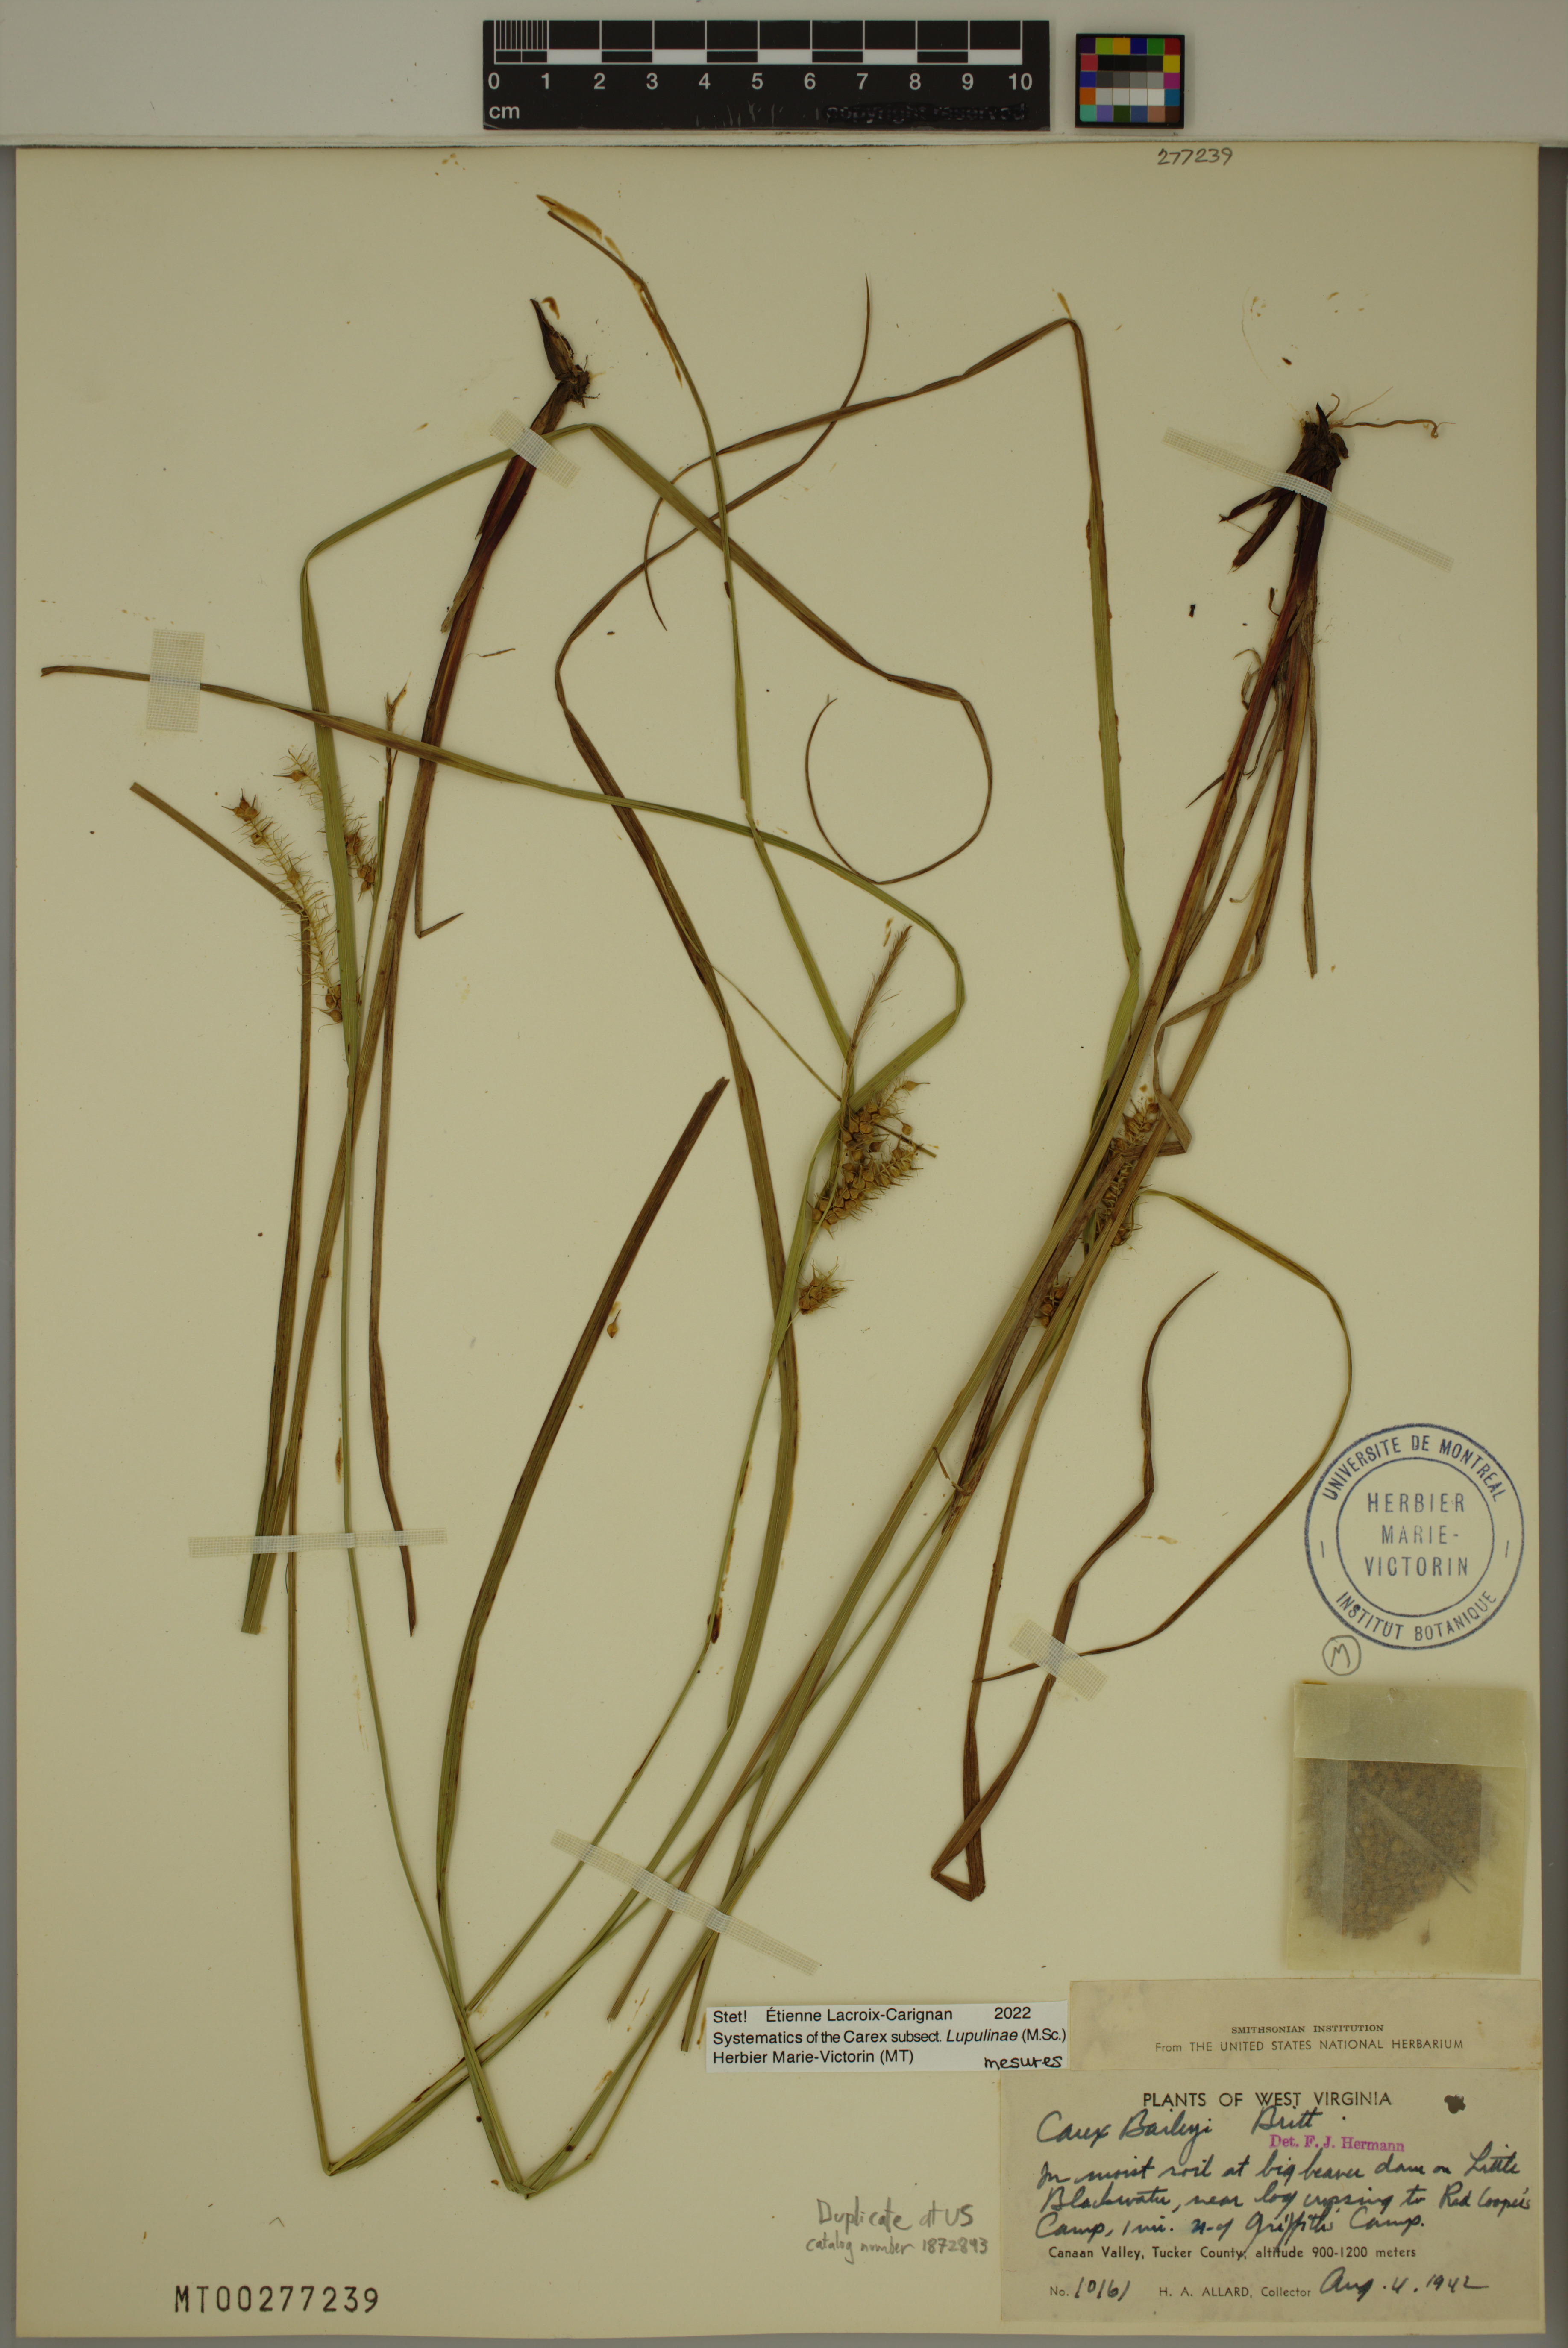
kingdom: Plantae
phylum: Tracheophyta
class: Liliopsida
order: Poales
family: Cyperaceae
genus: Carex
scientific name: Carex baileyi
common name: Bailey's sedge
